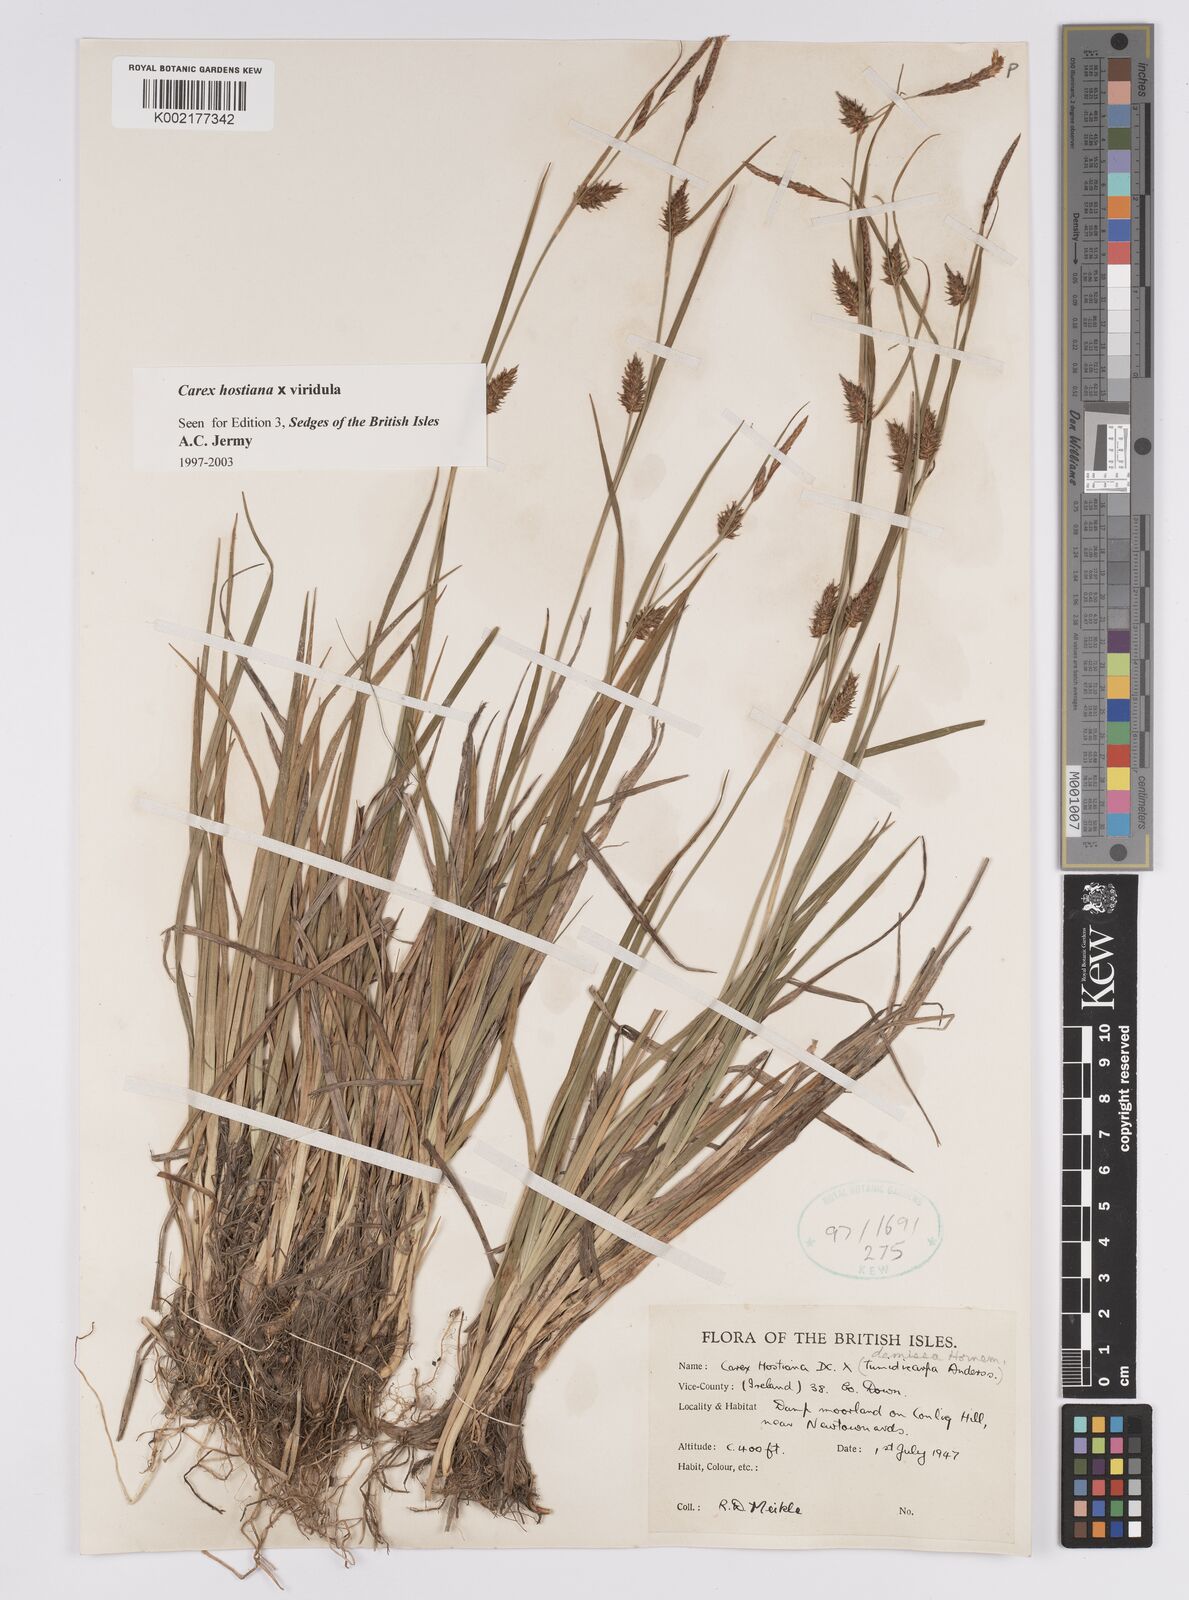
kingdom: Plantae
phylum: Tracheophyta
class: Liliopsida
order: Poales
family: Cyperaceae
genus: Carex
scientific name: Carex hostiana
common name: Tawny sedge
